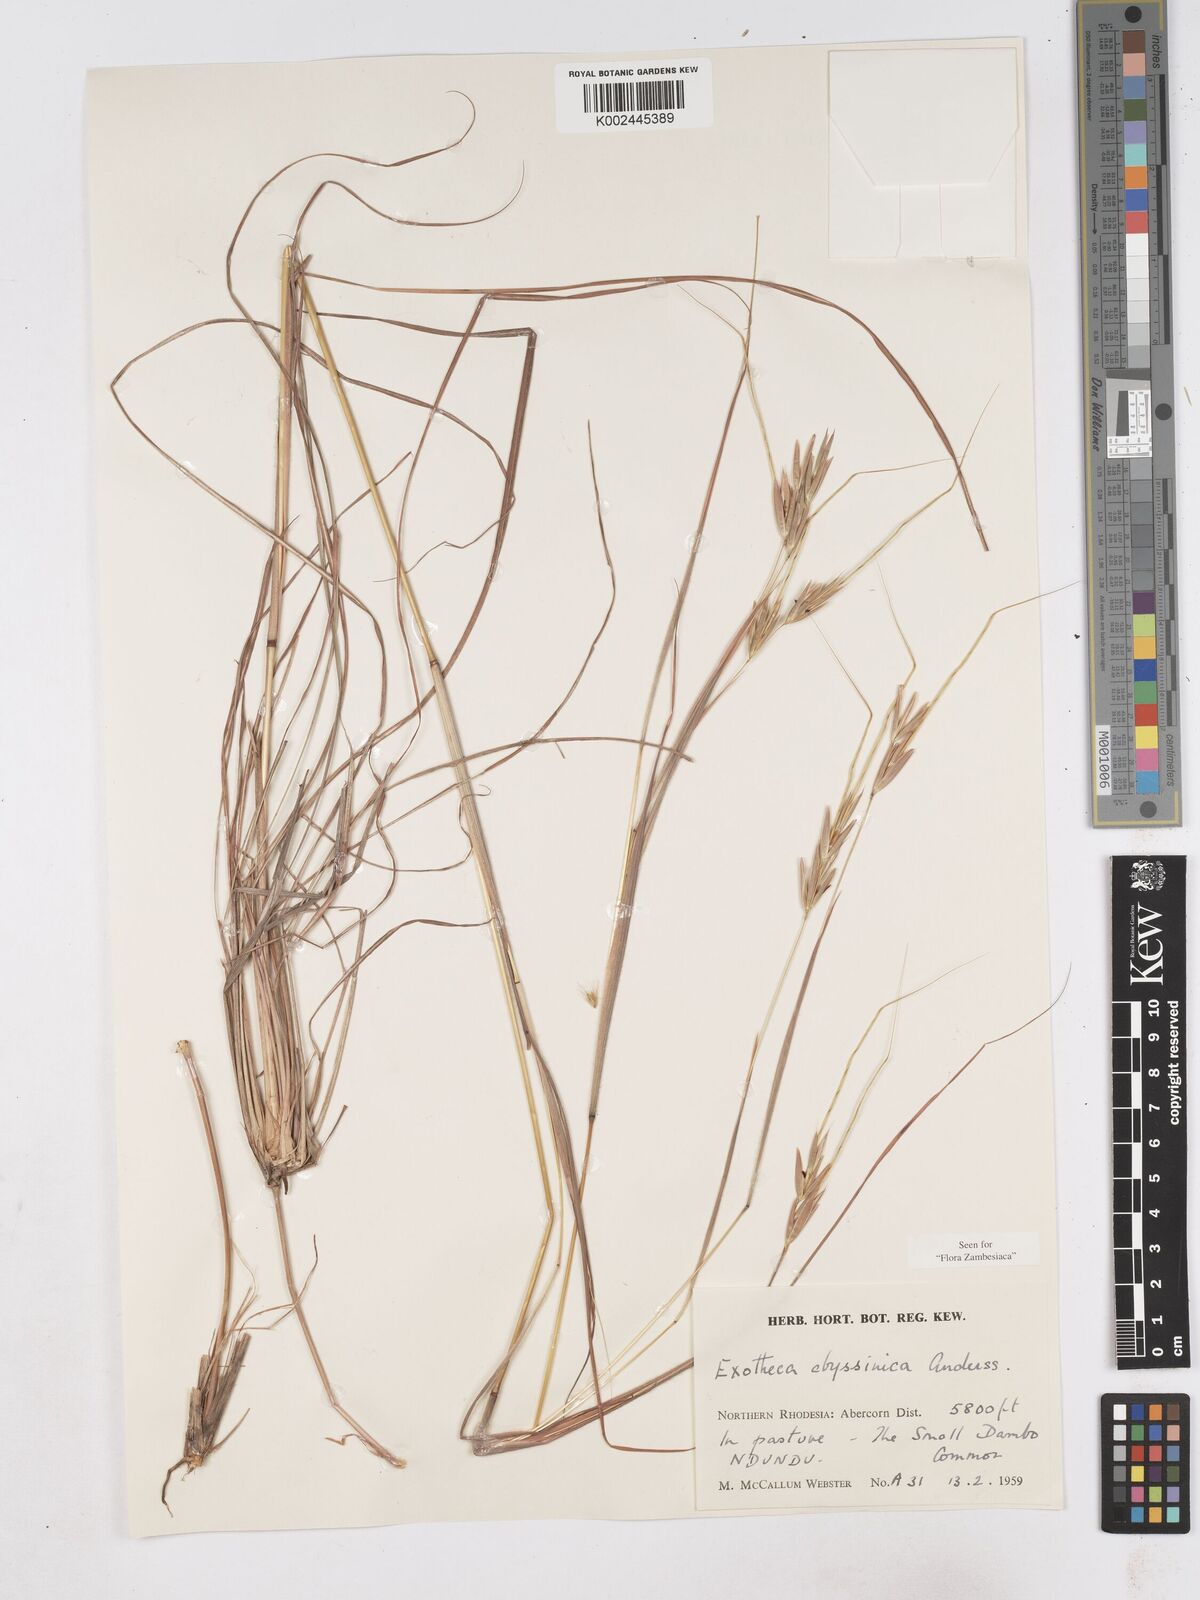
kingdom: Plantae
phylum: Tracheophyta
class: Liliopsida
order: Poales
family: Poaceae
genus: Exotheca
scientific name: Exotheca abyssinica
